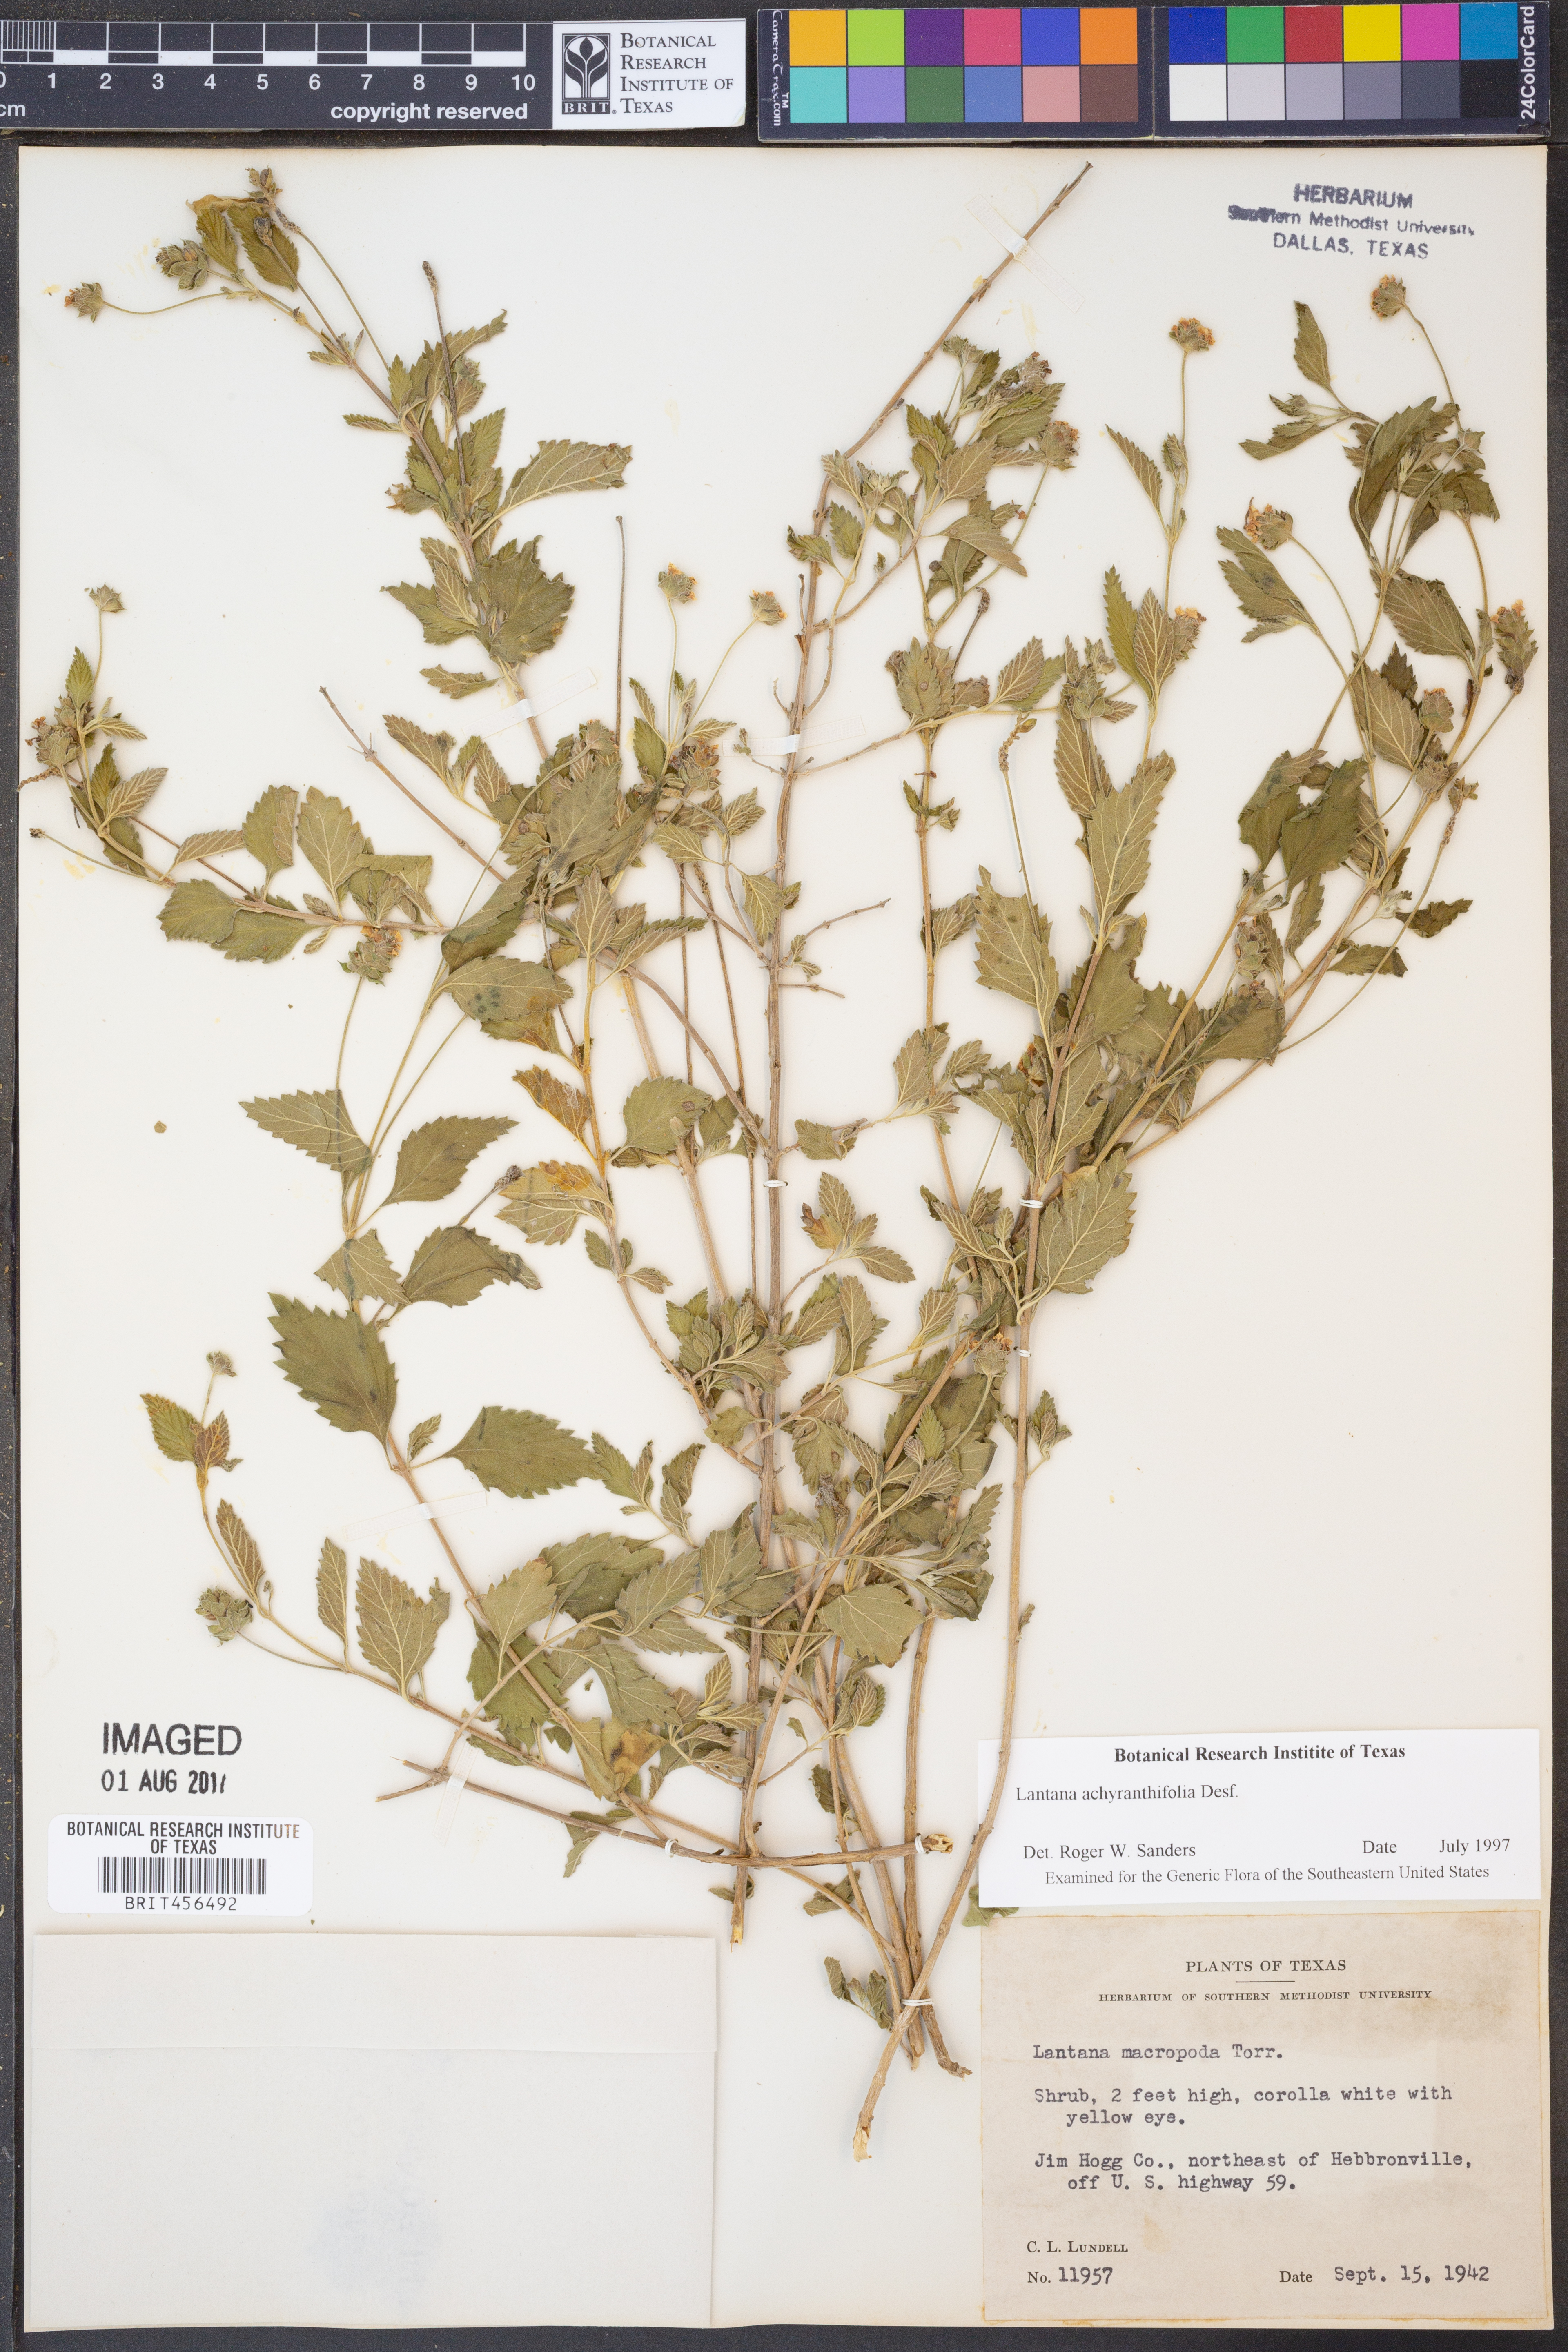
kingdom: Plantae
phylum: Tracheophyta
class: Magnoliopsida
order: Lamiales
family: Verbenaceae
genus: Lantana
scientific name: Lantana achyranthifolia
